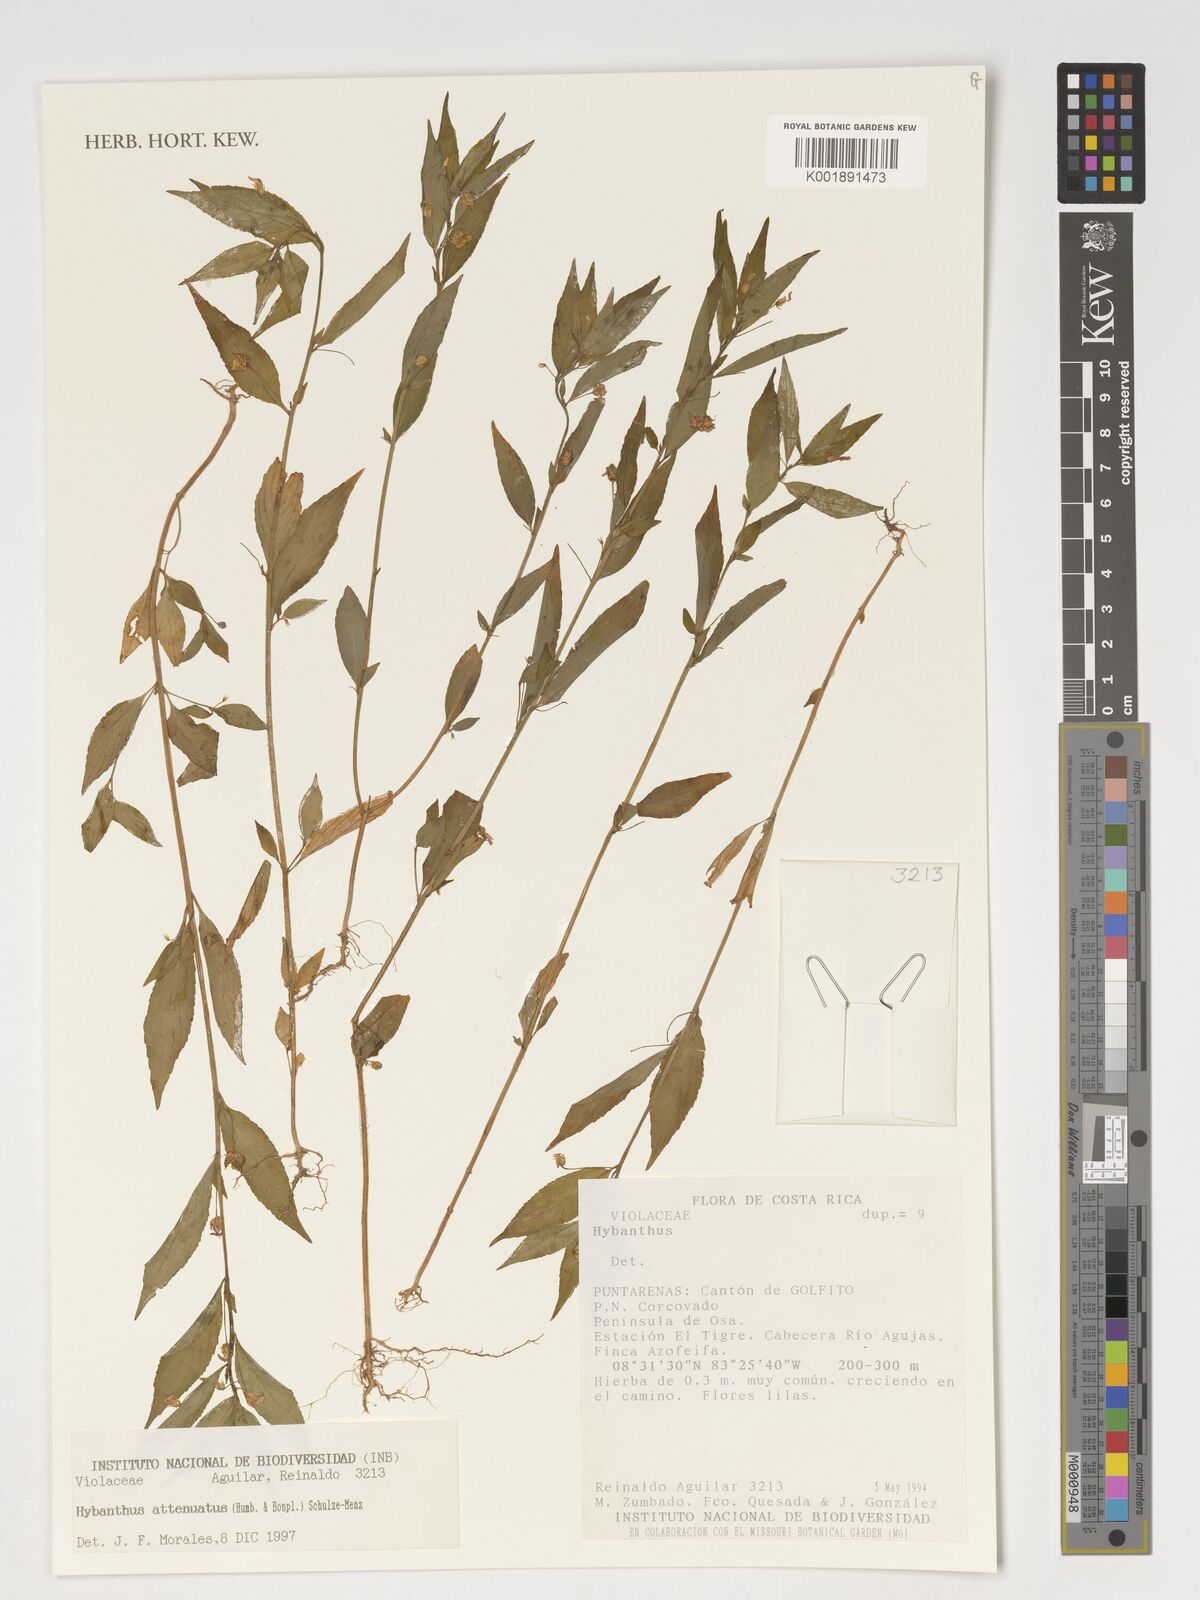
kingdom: Plantae
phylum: Tracheophyta
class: Magnoliopsida
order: Malpighiales
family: Violaceae
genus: Pombalia
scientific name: Pombalia attenuata
